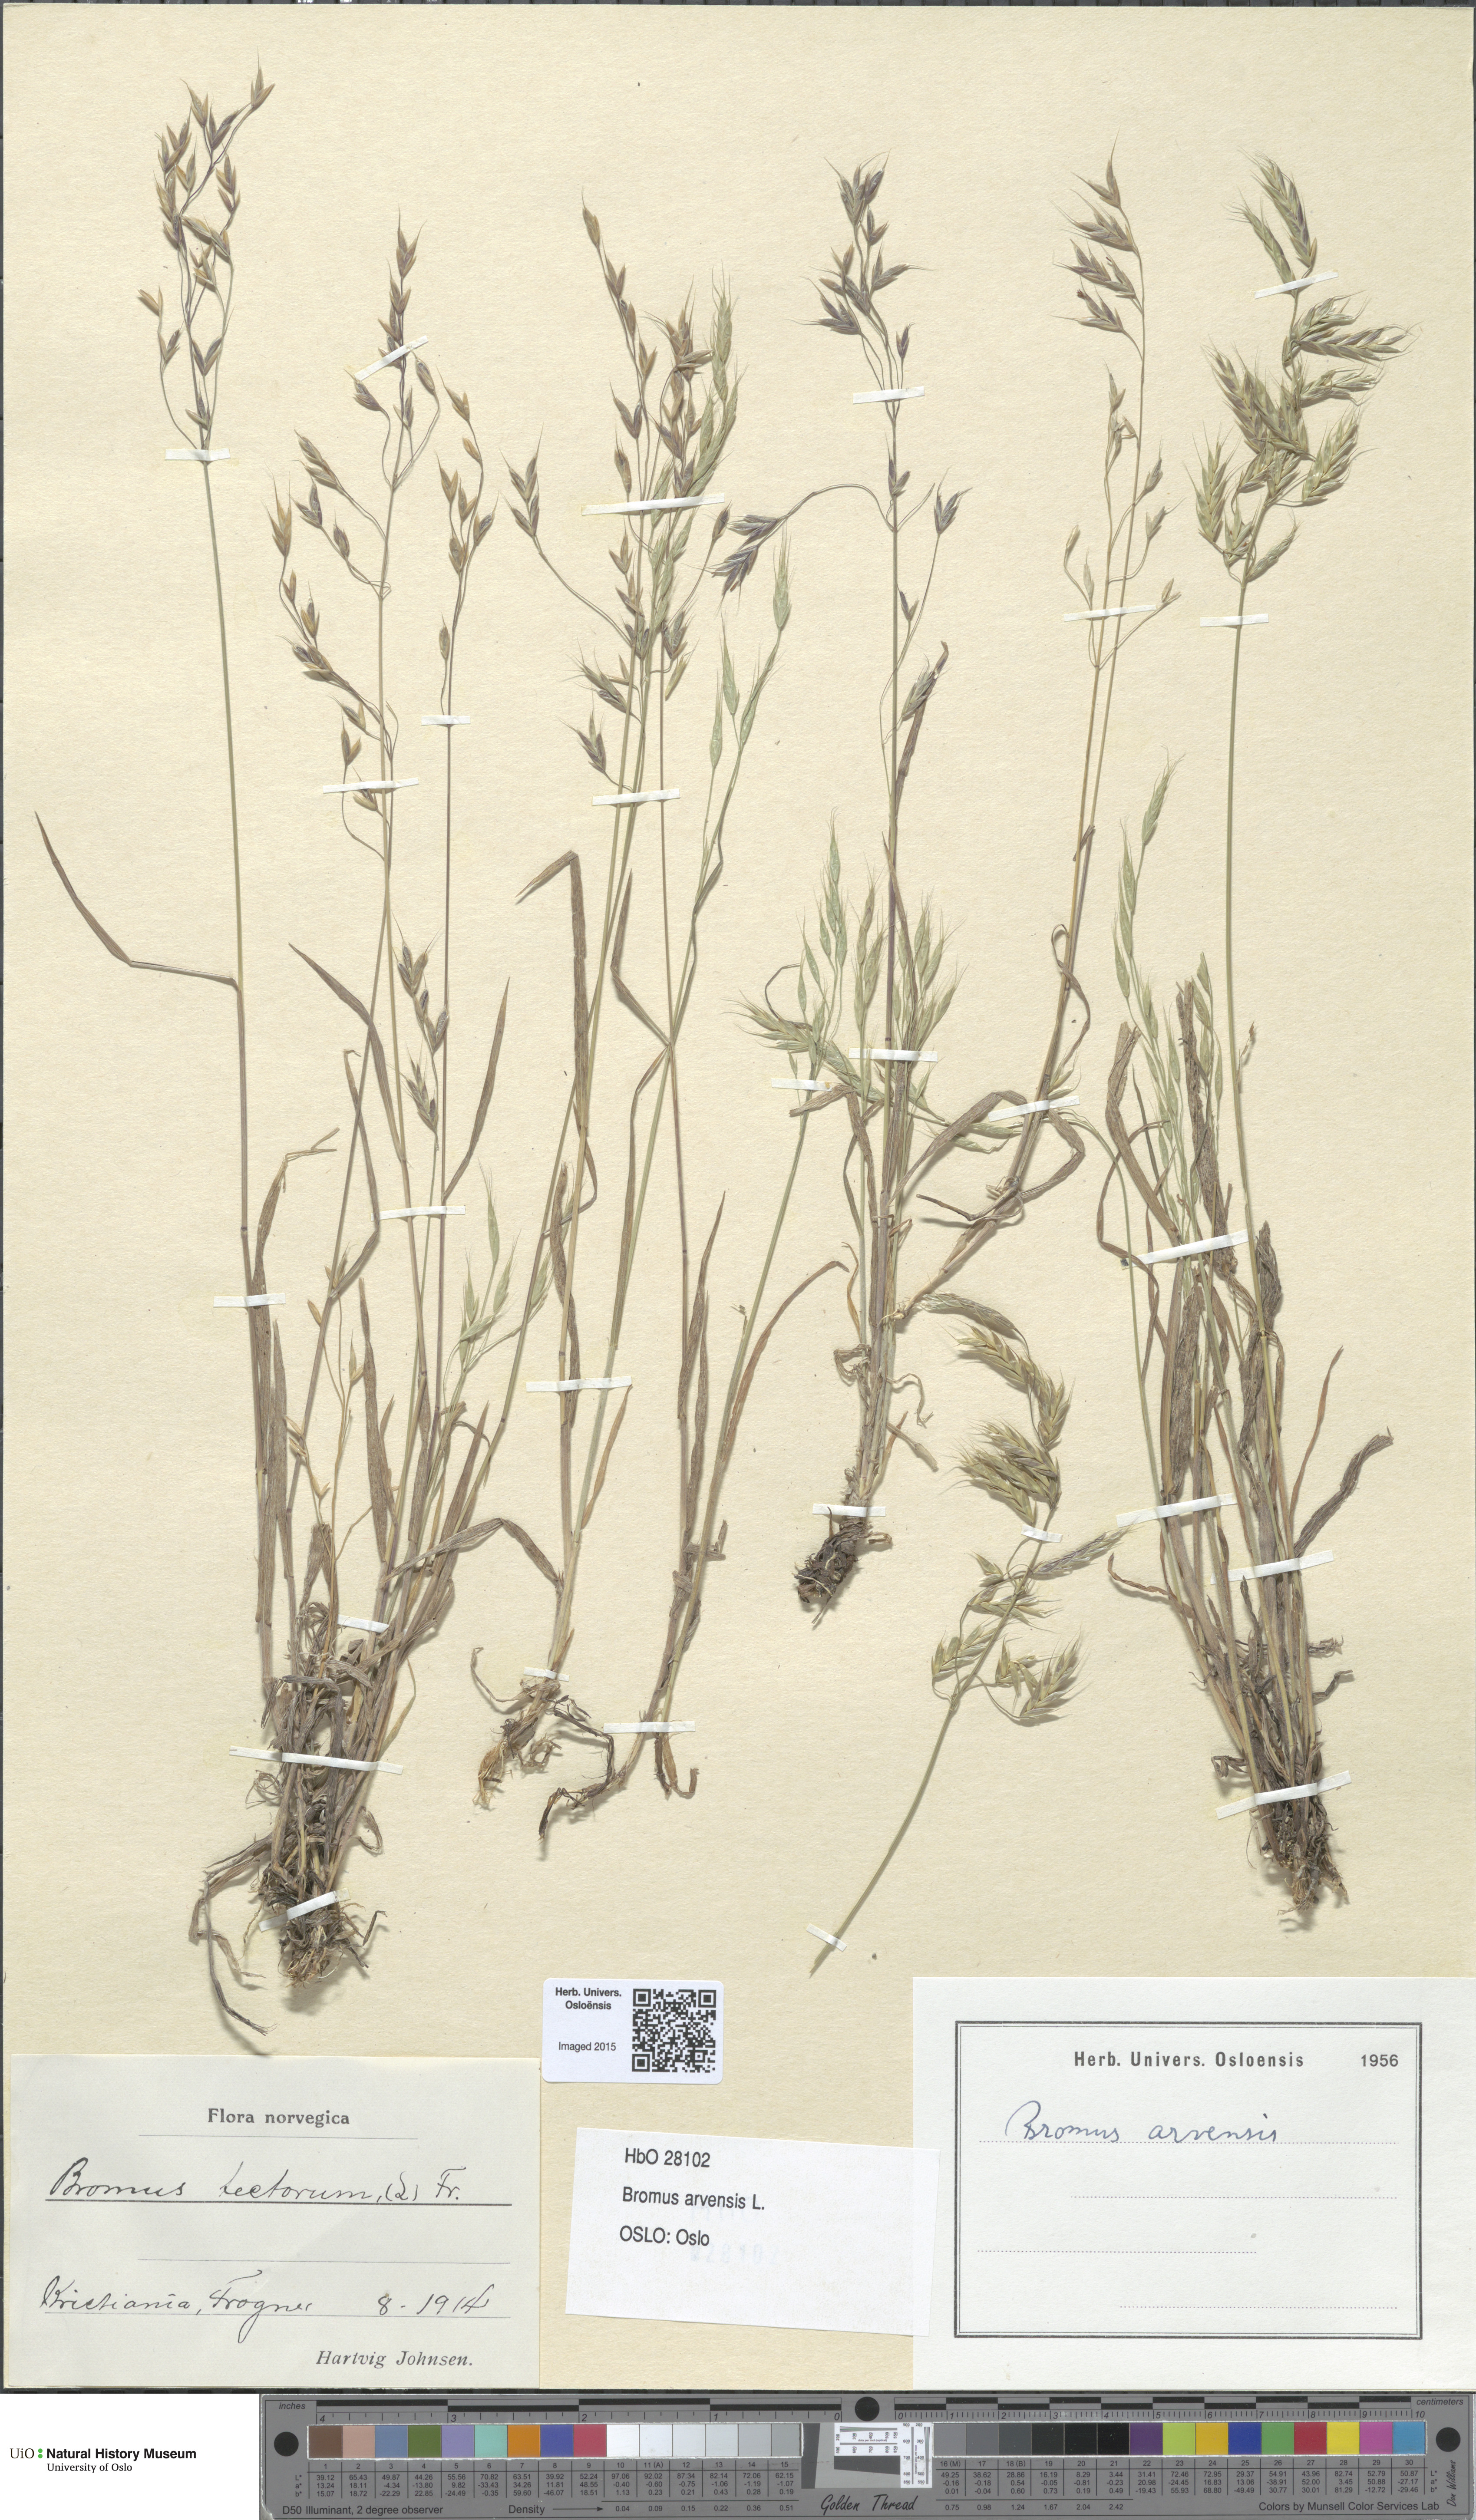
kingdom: Plantae
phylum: Tracheophyta
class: Liliopsida
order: Poales
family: Poaceae
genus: Bromus
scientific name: Bromus arvensis
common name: Field brome
